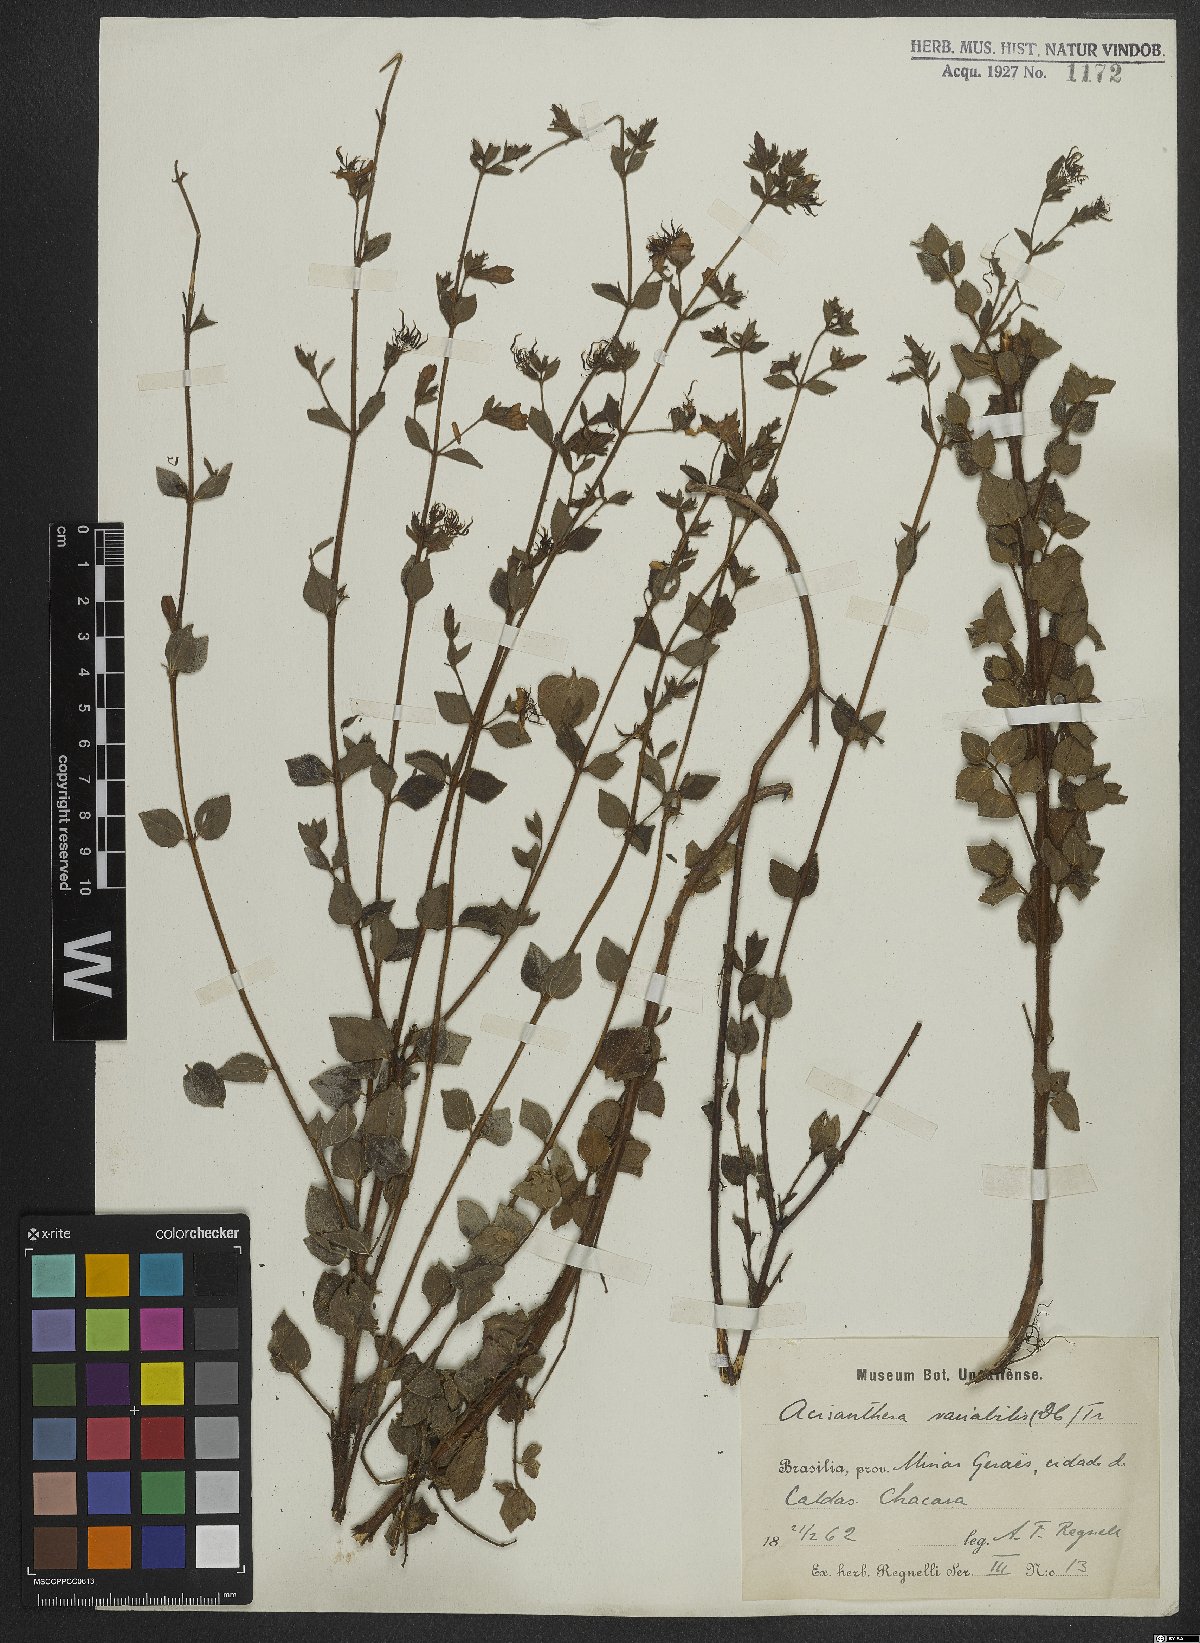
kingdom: Plantae
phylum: Tracheophyta
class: Magnoliopsida
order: Myrtales
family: Melastomataceae
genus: Acisanthera
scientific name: Acisanthera variabilis
